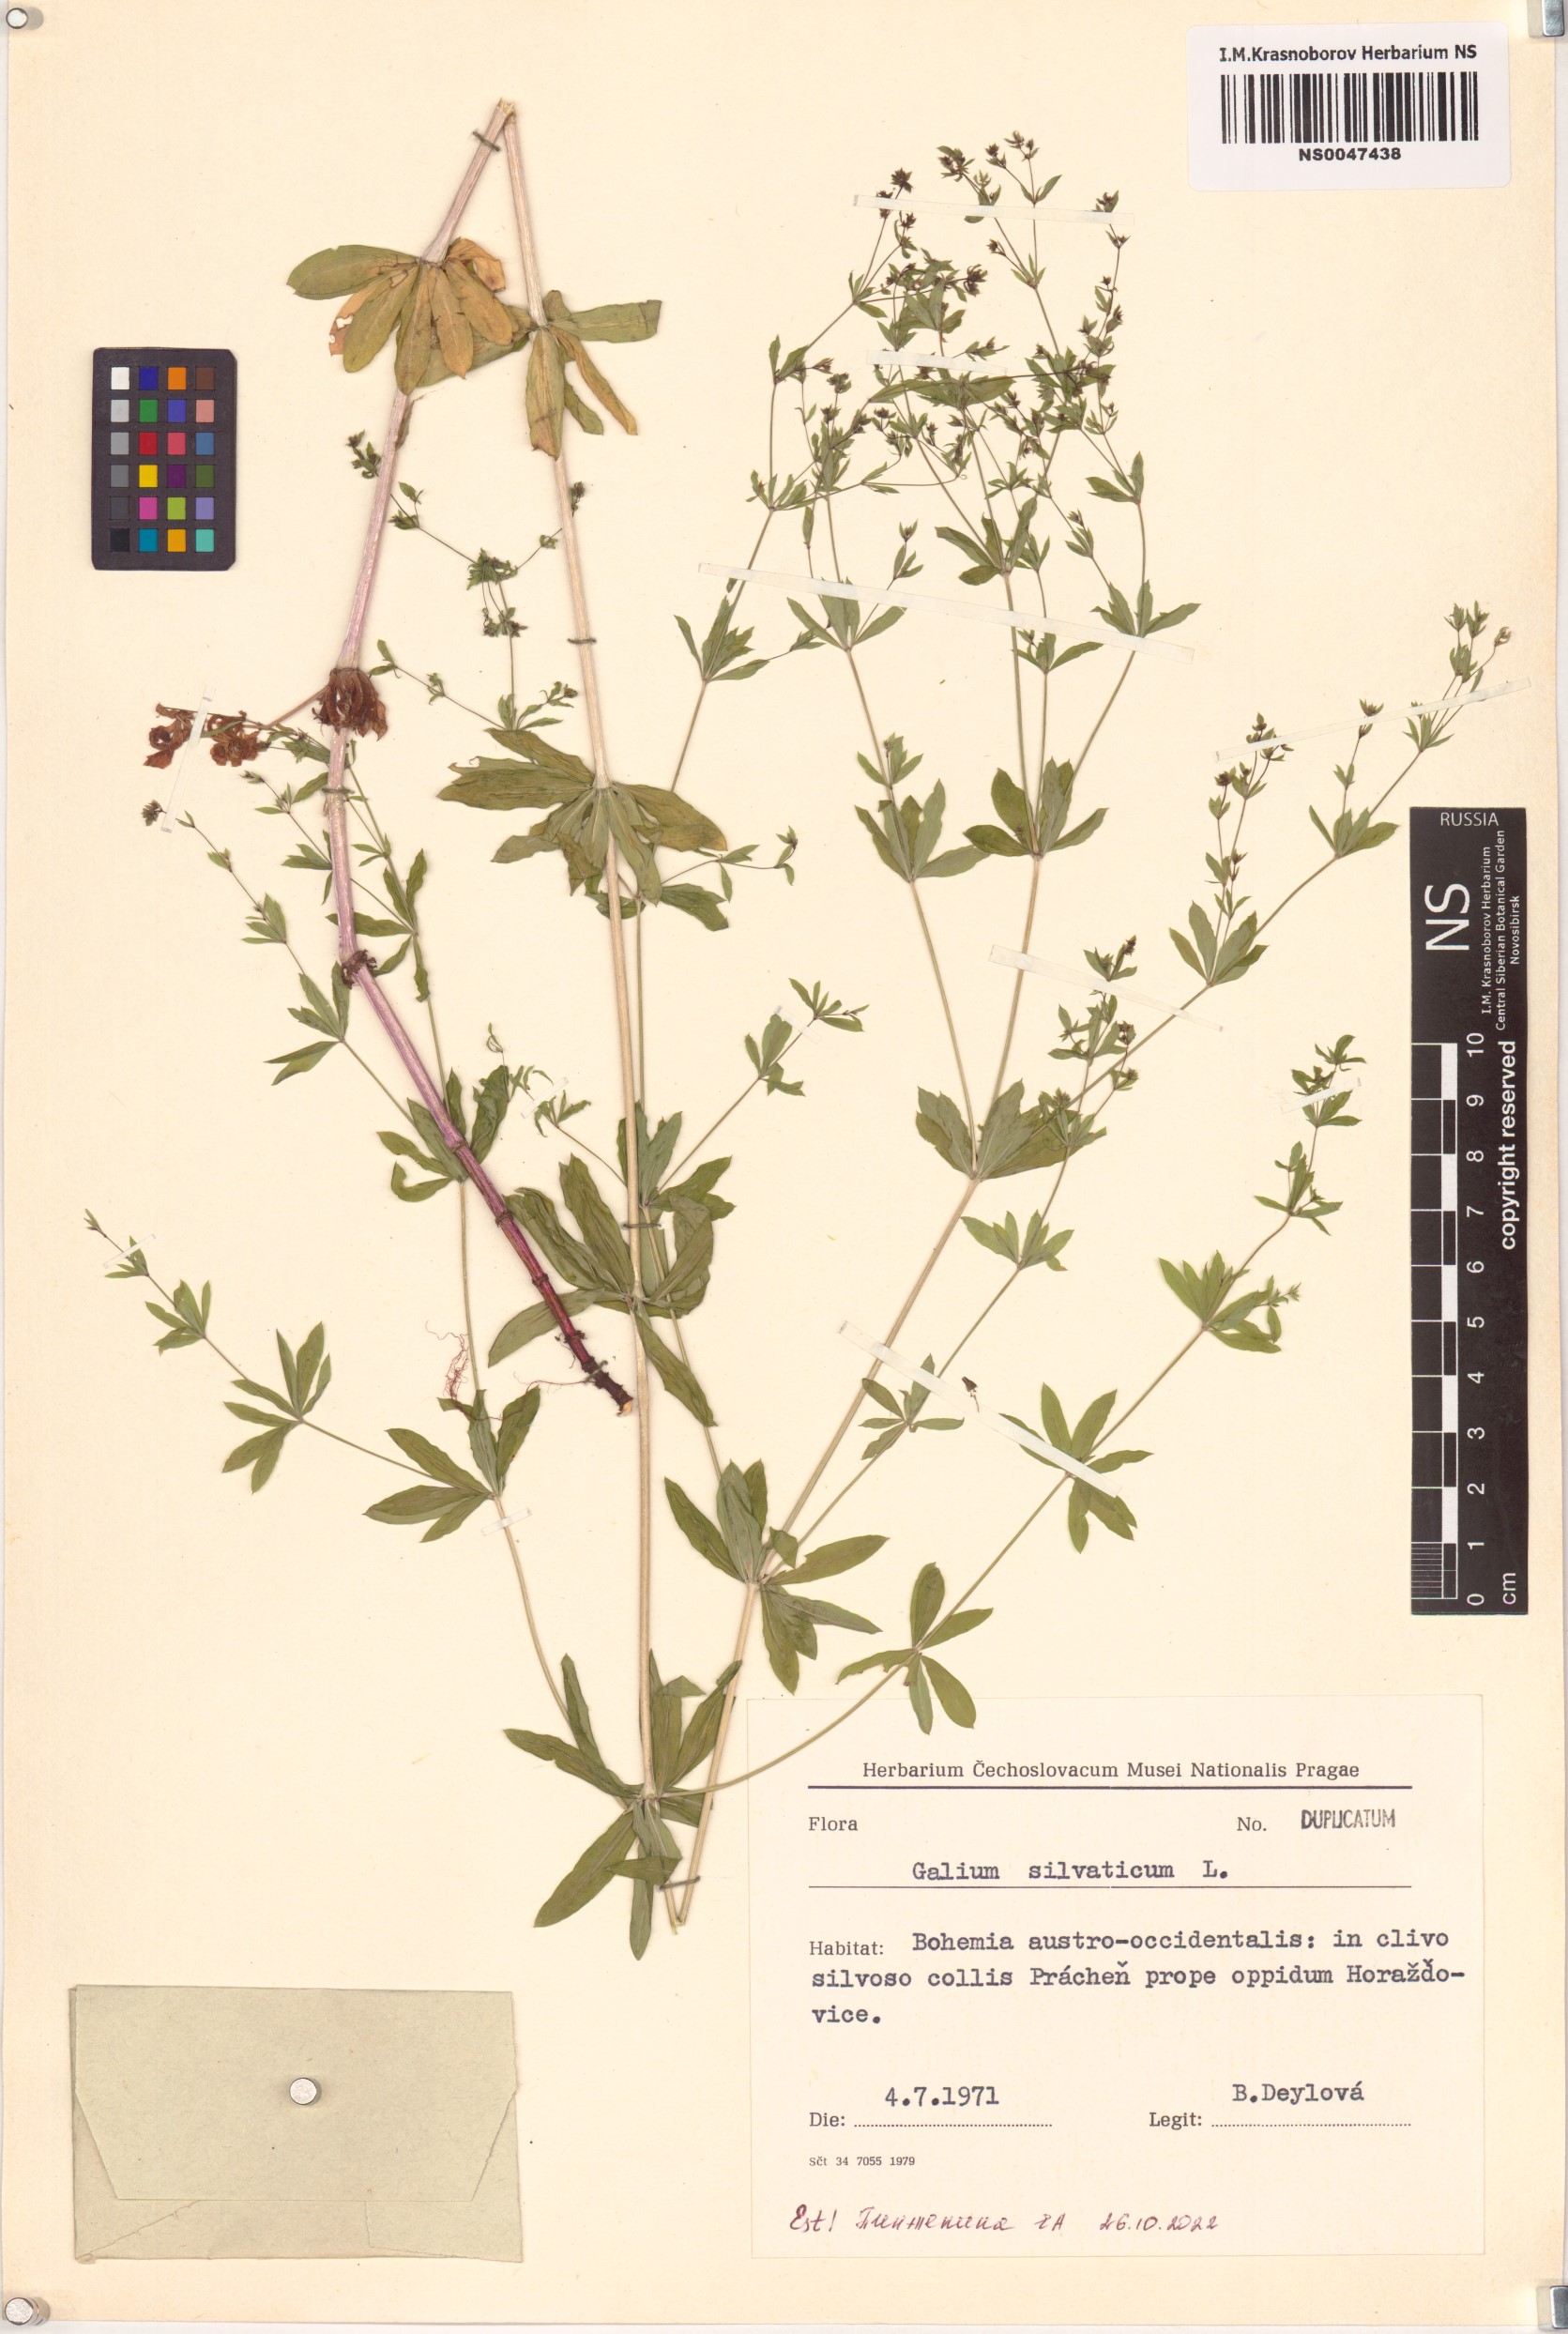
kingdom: Plantae
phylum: Tracheophyta
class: Magnoliopsida
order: Gentianales
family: Rubiaceae
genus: Galium
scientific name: Galium sylvaticum
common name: Wood bedstraw
